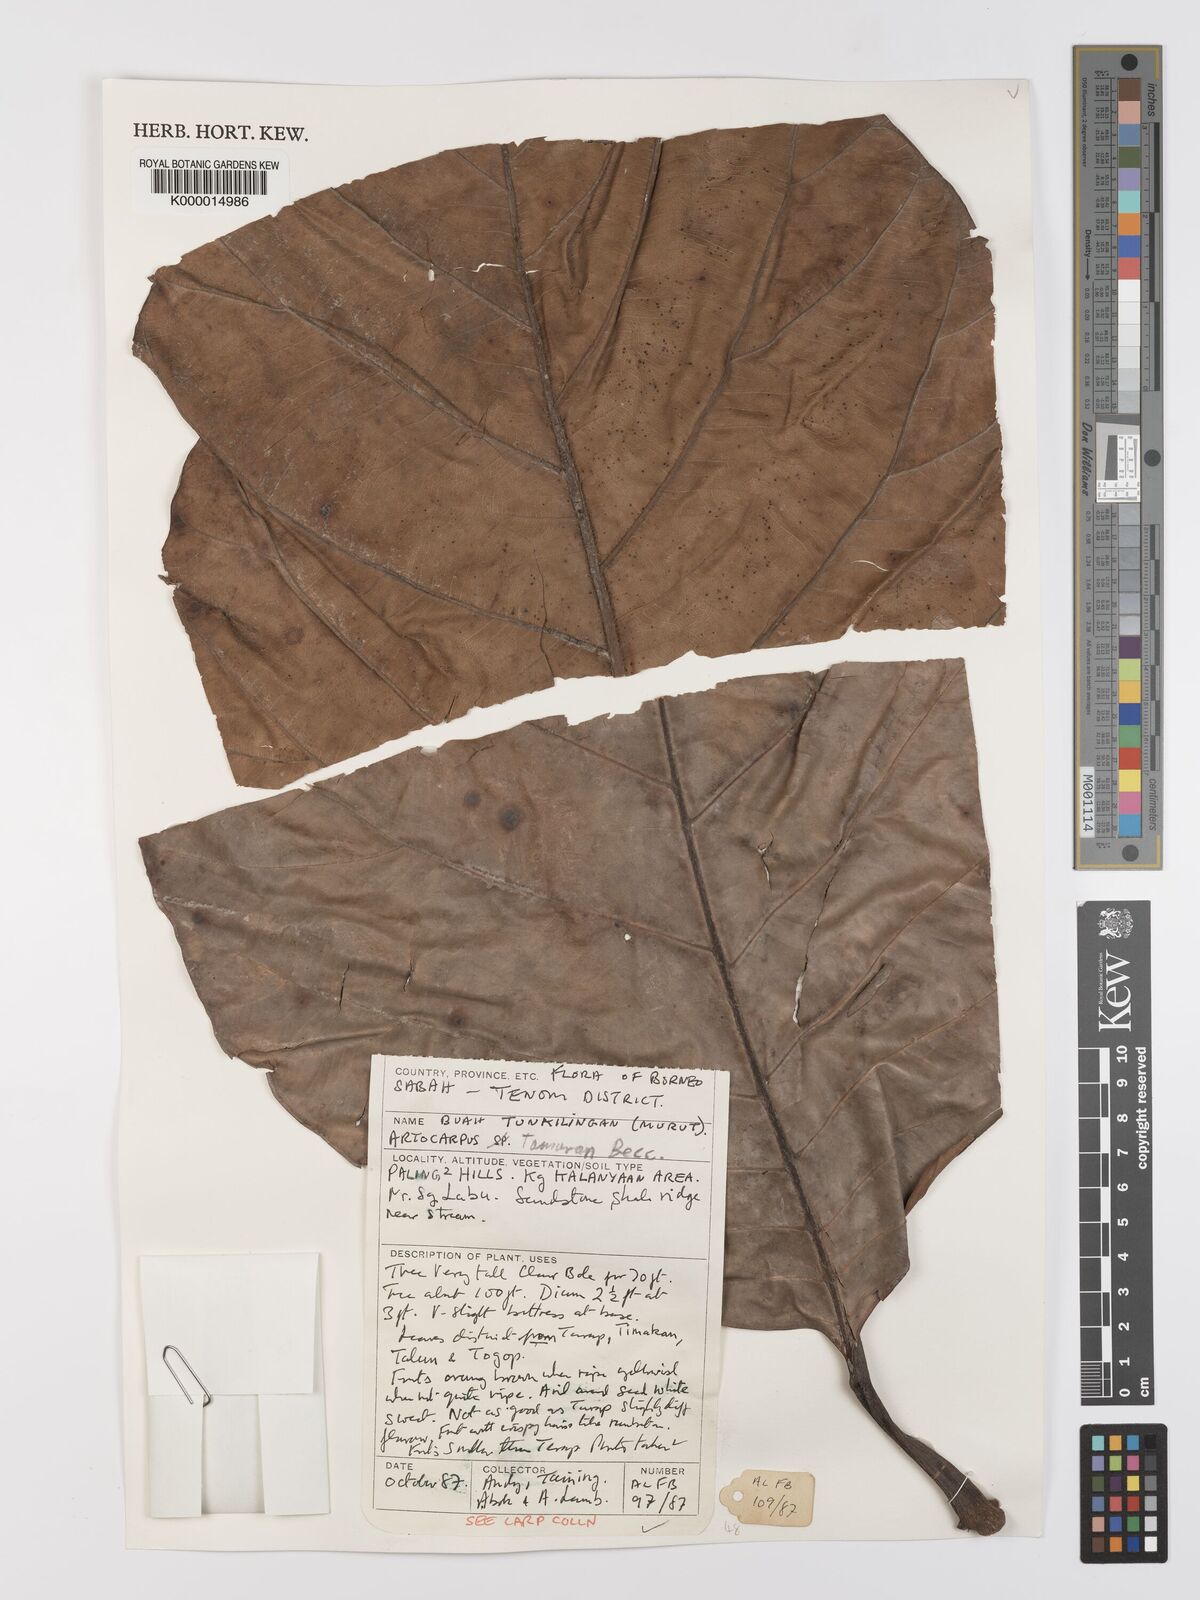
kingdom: Plantae
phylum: Tracheophyta
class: Magnoliopsida
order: Rosales
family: Moraceae
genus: Artocarpus
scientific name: Artocarpus tamaran
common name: Elephant jack
